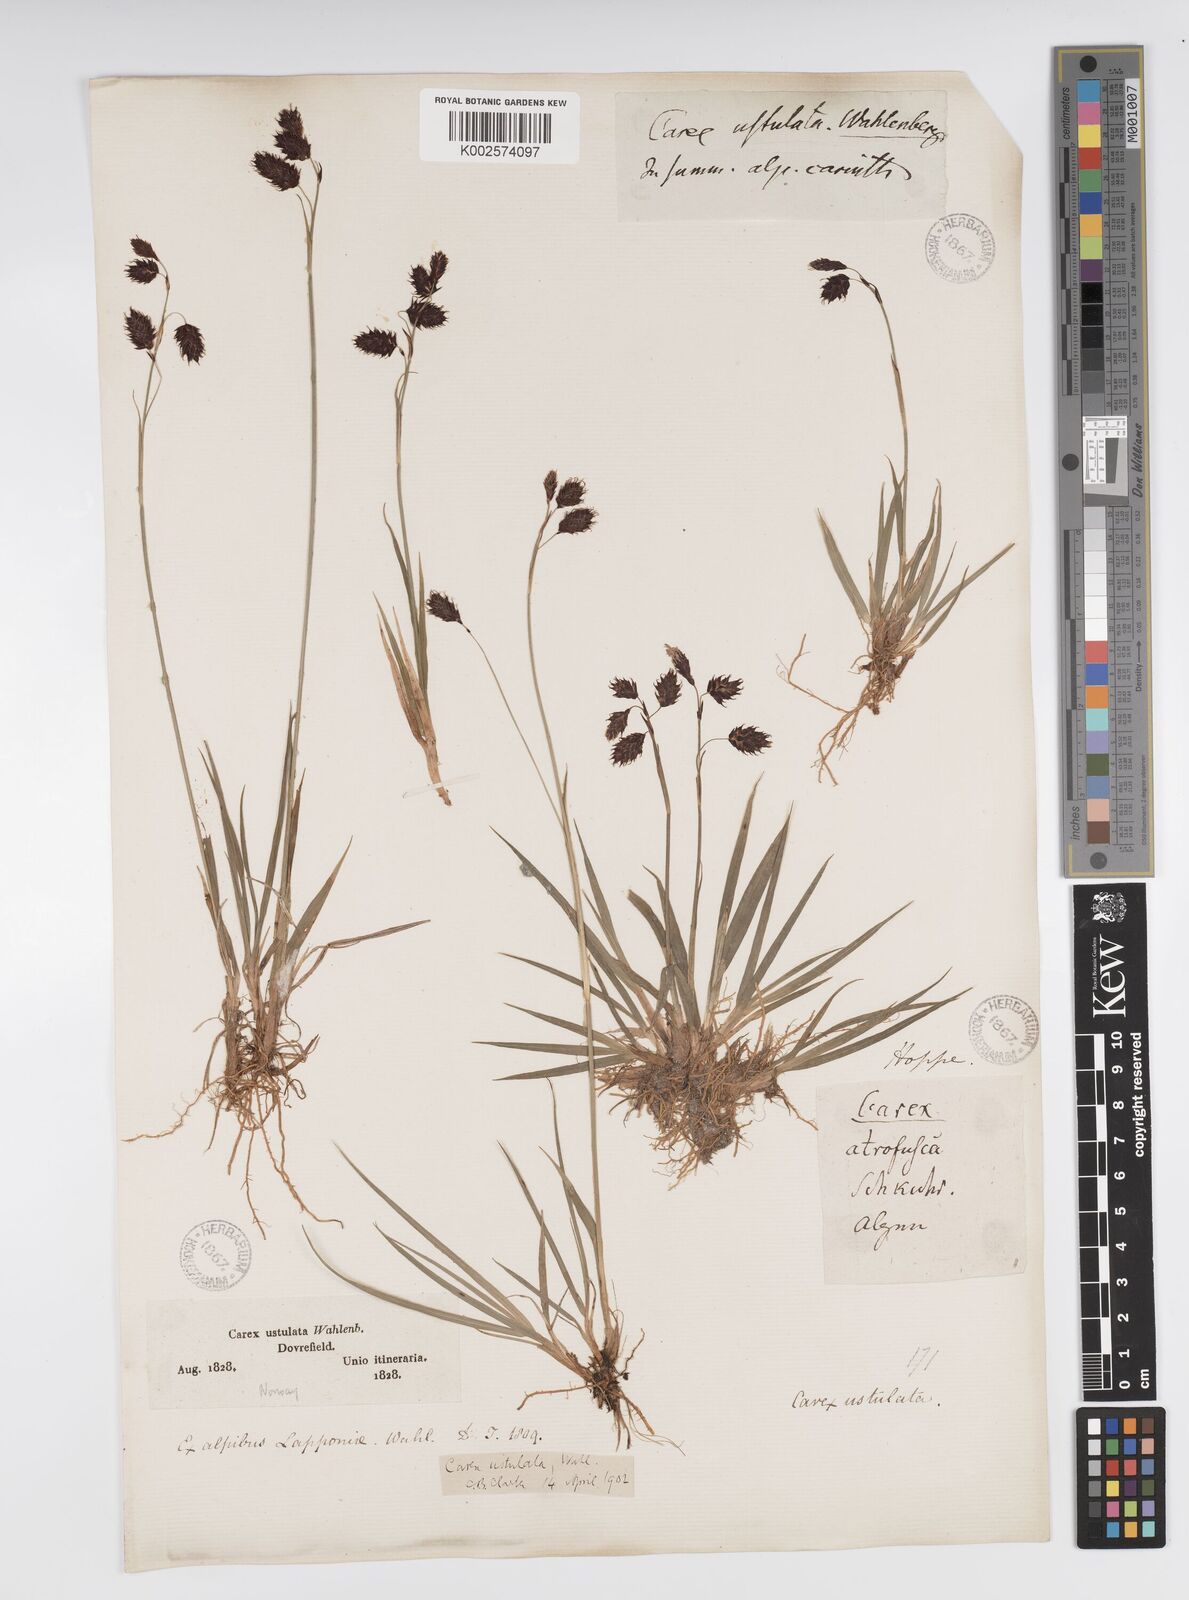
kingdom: Plantae
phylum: Tracheophyta
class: Liliopsida
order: Poales
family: Cyperaceae
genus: Carex
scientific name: Carex atrofusca
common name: Scorched alpine-sedge
